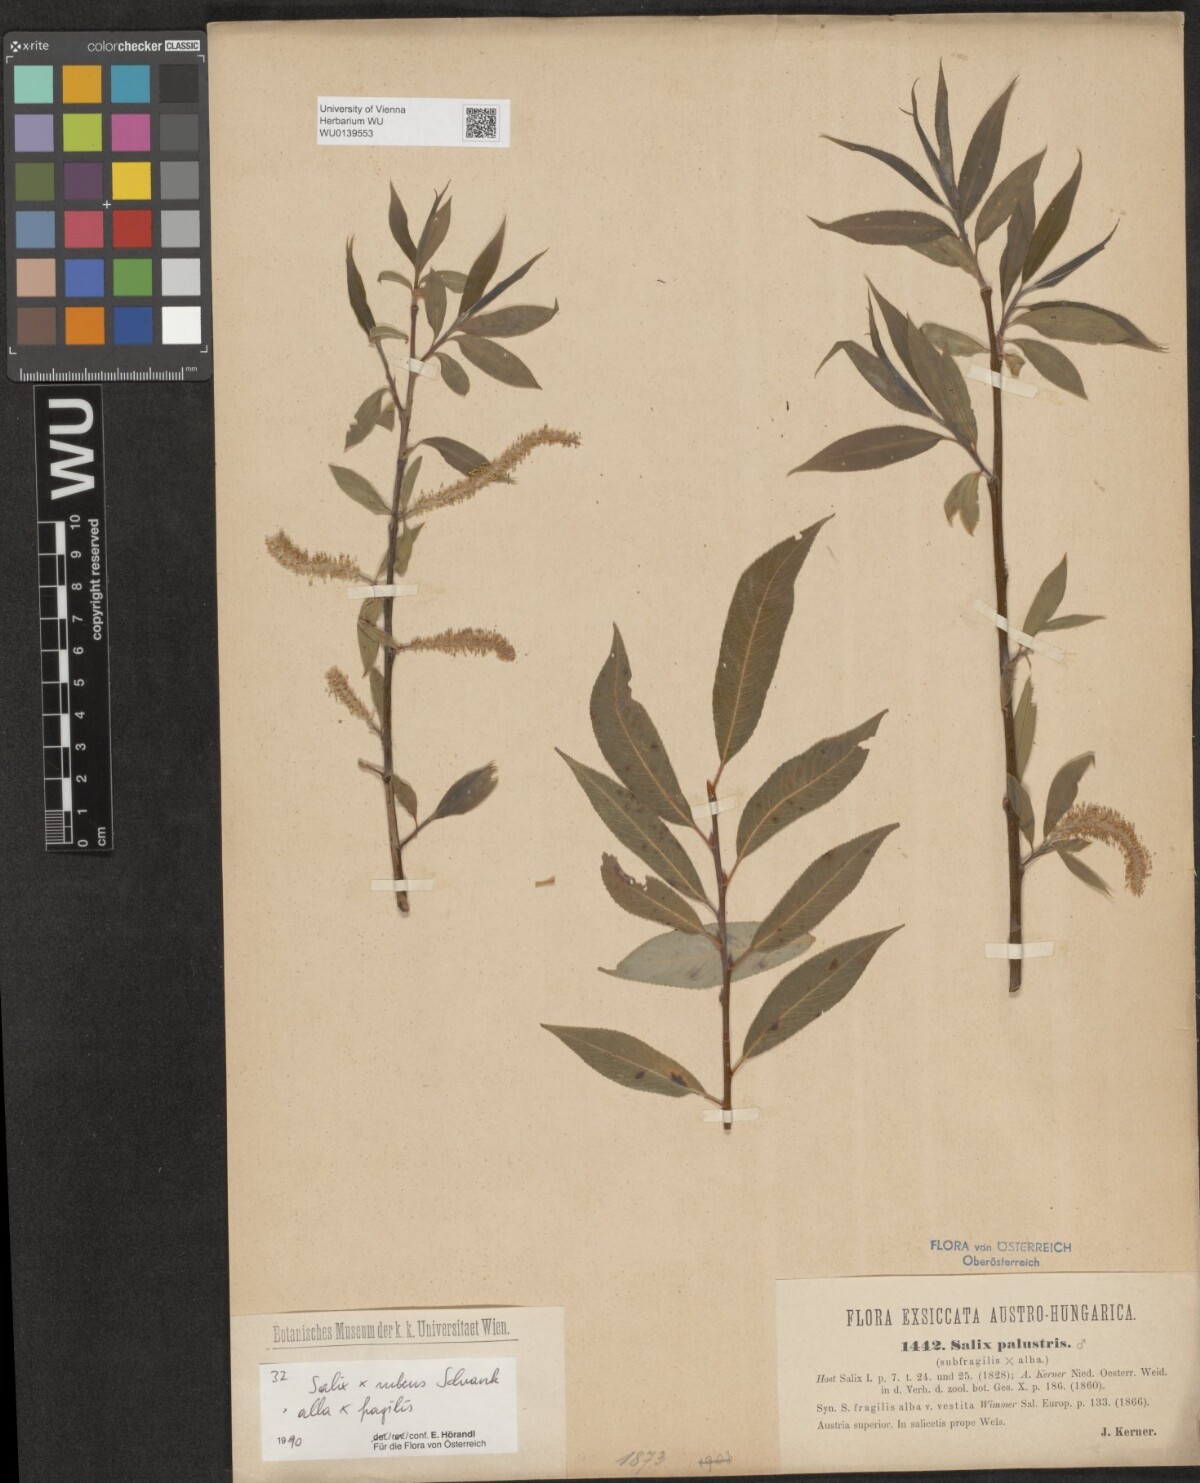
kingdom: Plantae
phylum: Tracheophyta
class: Magnoliopsida
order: Malpighiales
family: Salicaceae
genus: Salix
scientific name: Salix rubens
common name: Hybrid crack willow
